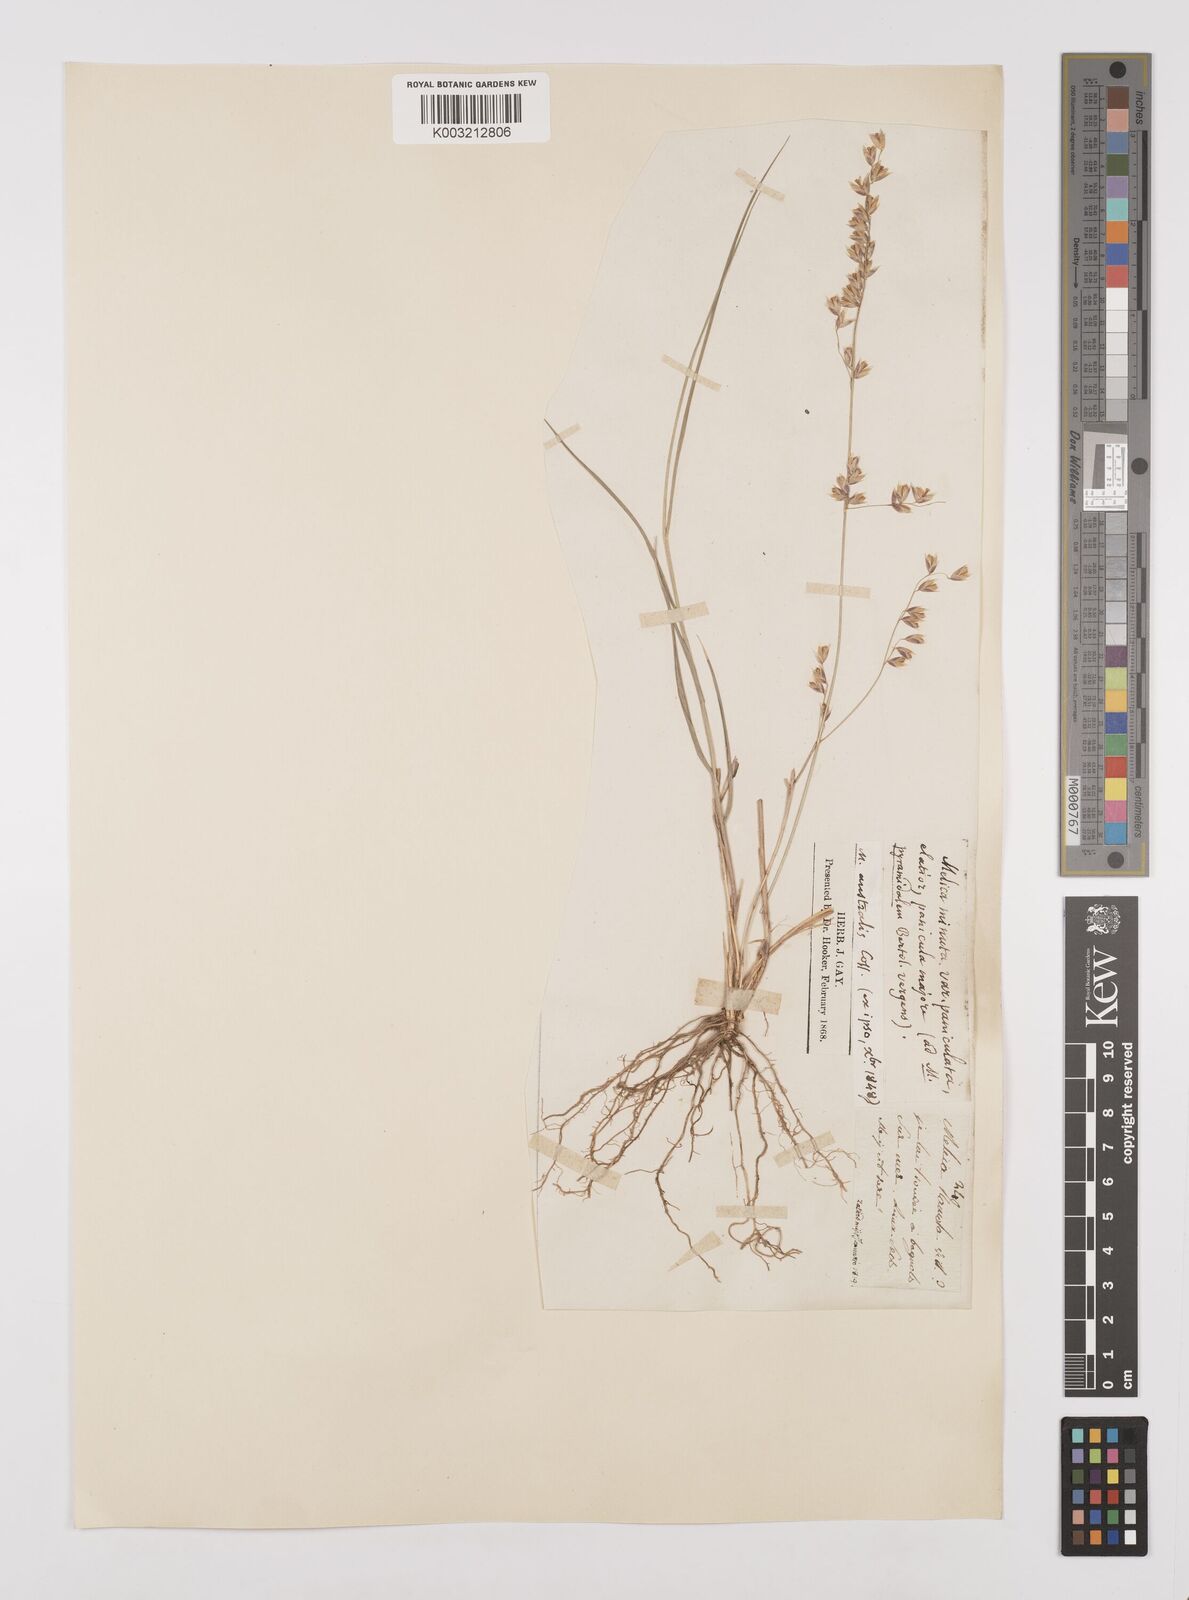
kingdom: Plantae
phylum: Tracheophyta
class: Liliopsida
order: Poales
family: Poaceae
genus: Melica
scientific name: Melica minuta
